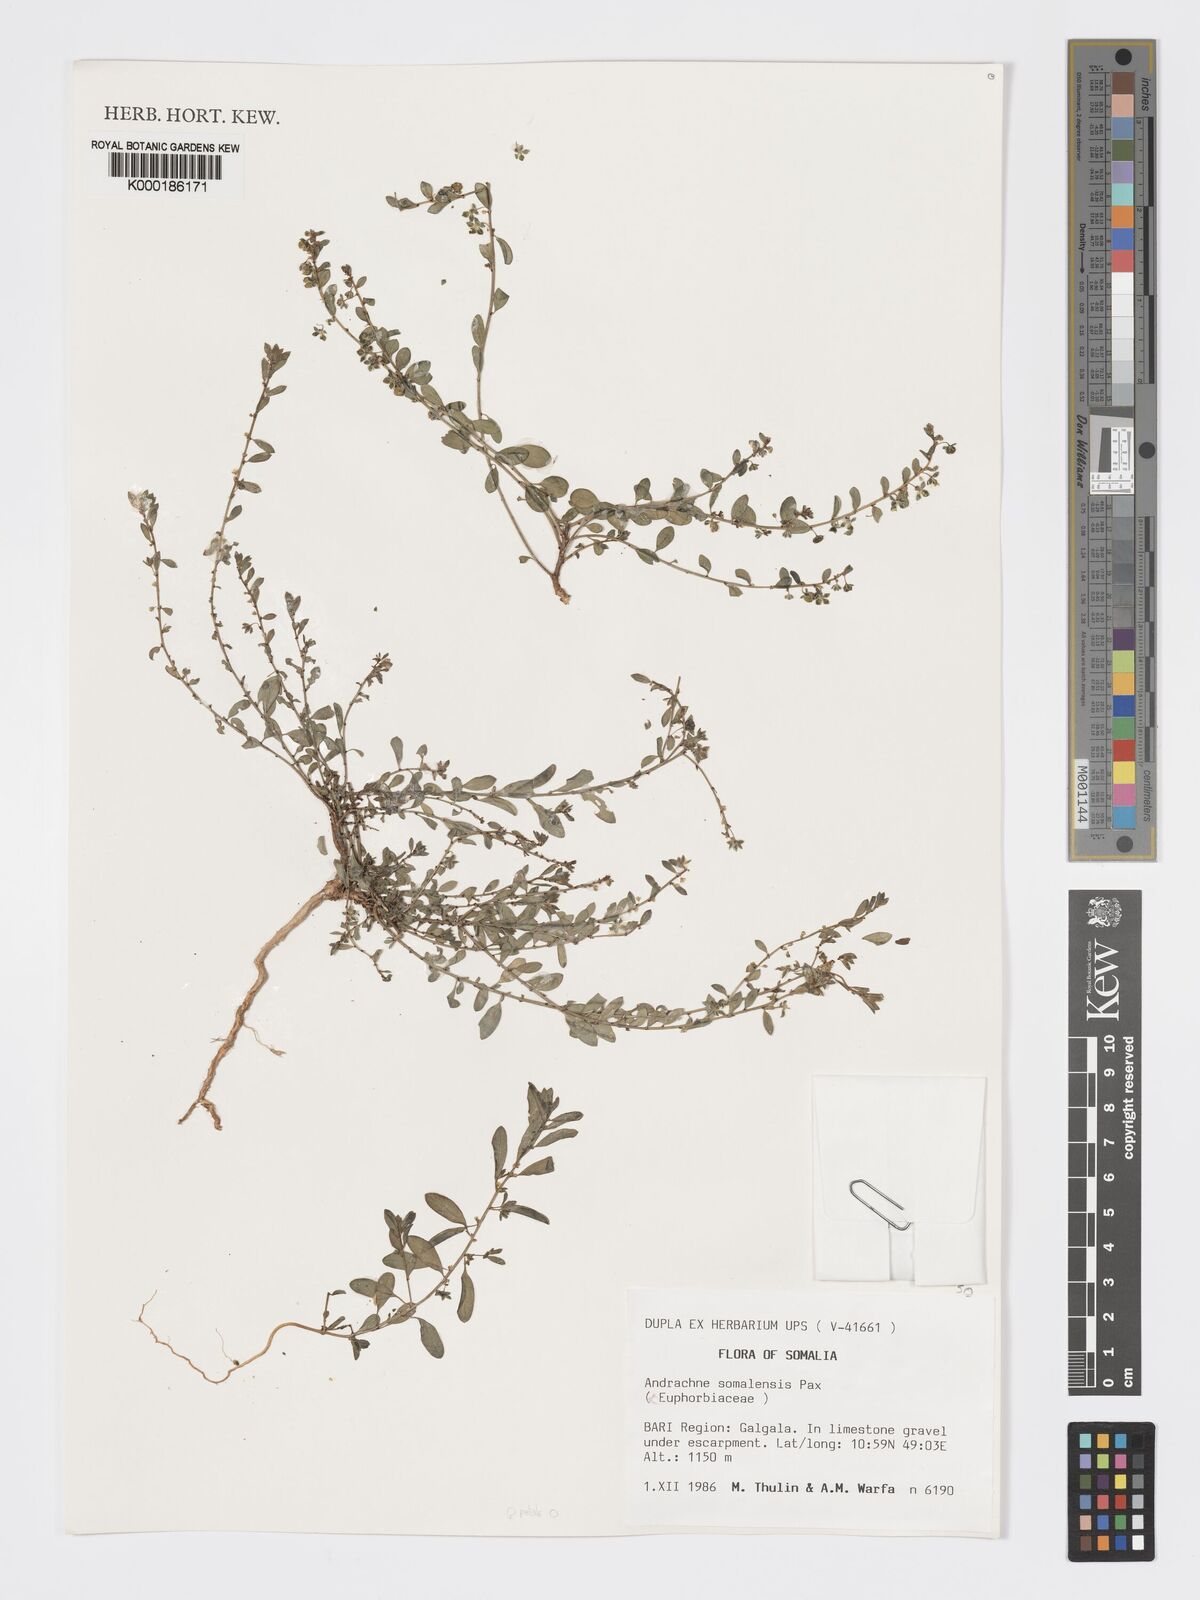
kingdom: Plantae
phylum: Tracheophyta
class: Magnoliopsida
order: Malpighiales
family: Phyllanthaceae
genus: Andrachne
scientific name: Andrachne schweinfurthii
